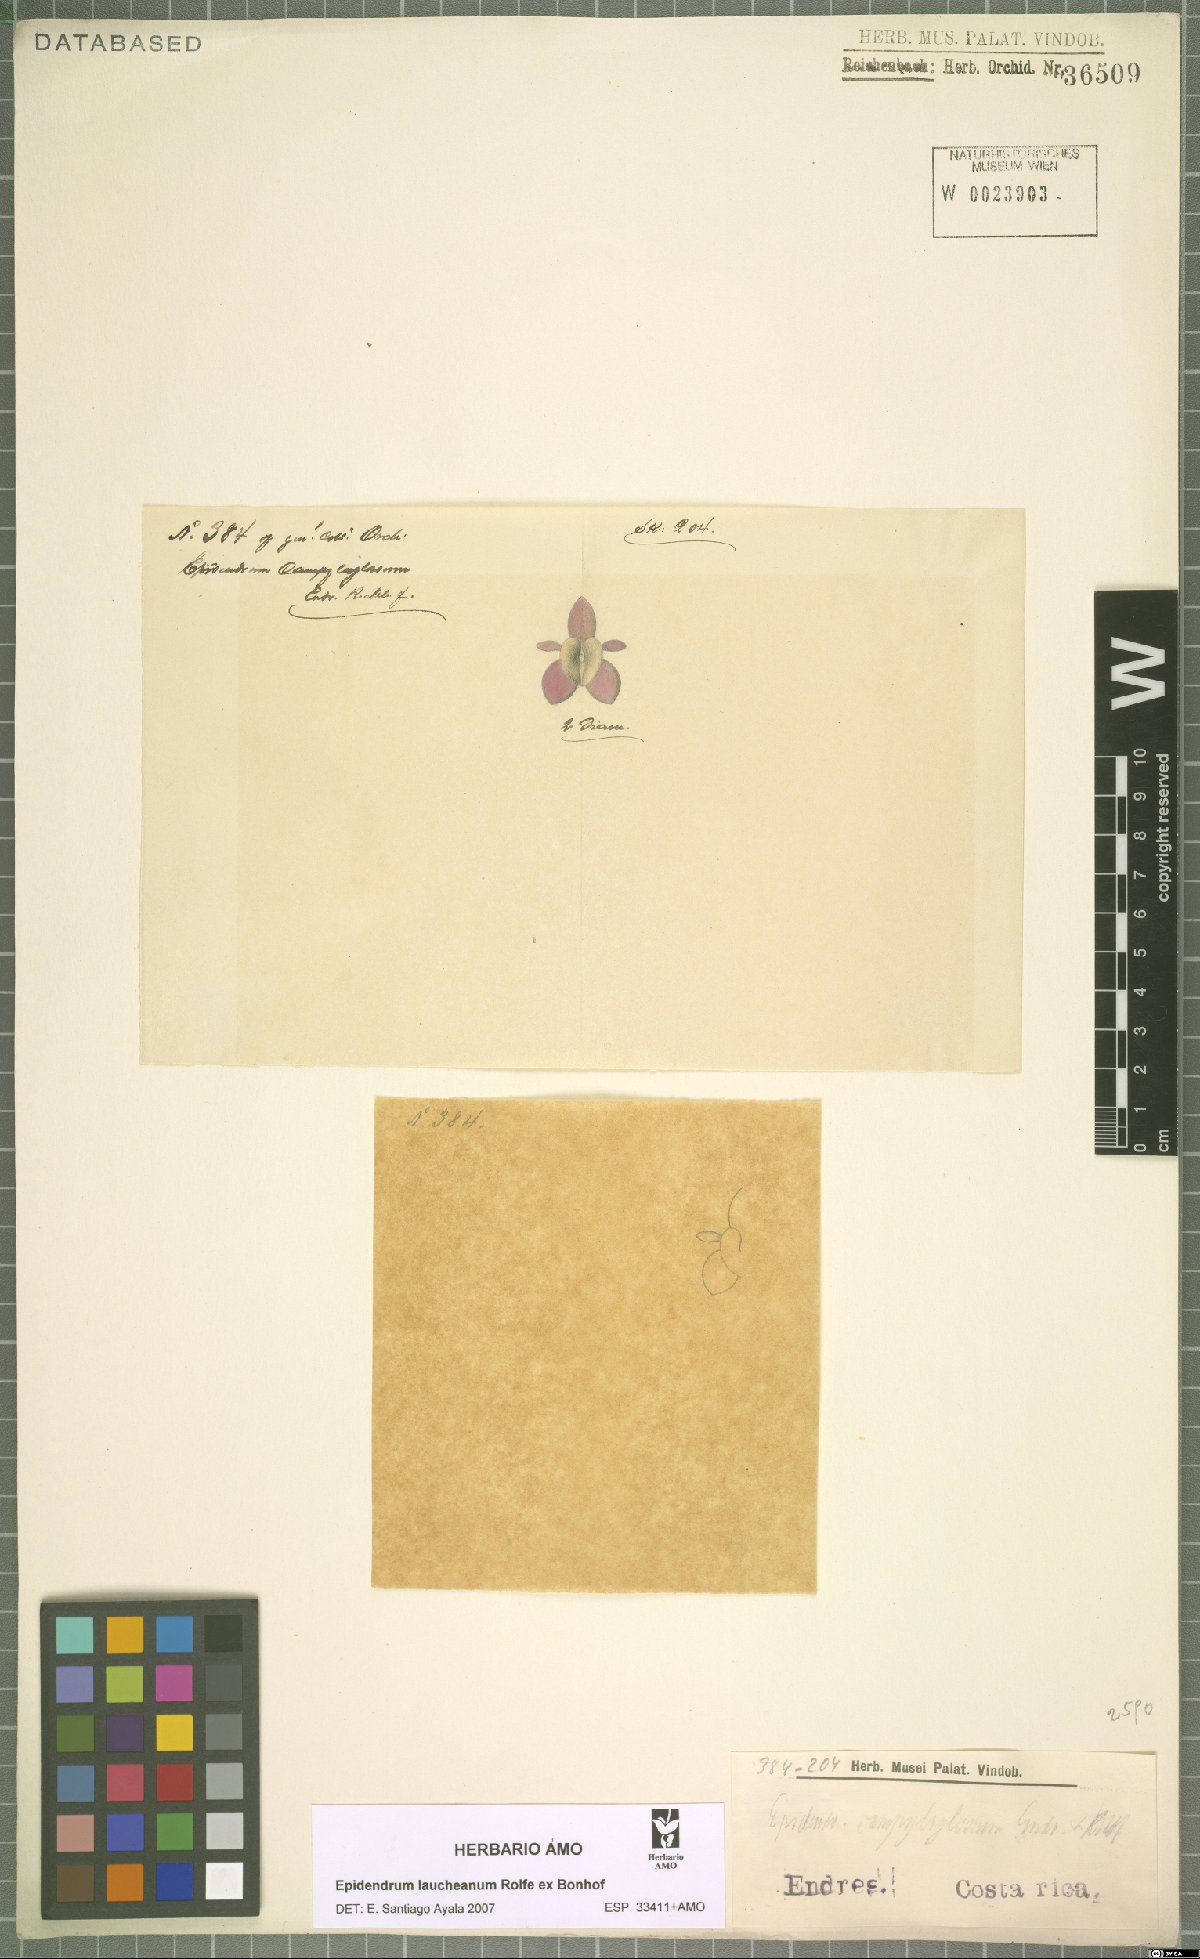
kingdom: Plantae
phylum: Tracheophyta
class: Liliopsida
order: Asparagales
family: Orchidaceae
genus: Epidendrum
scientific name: Epidendrum laucheanum
